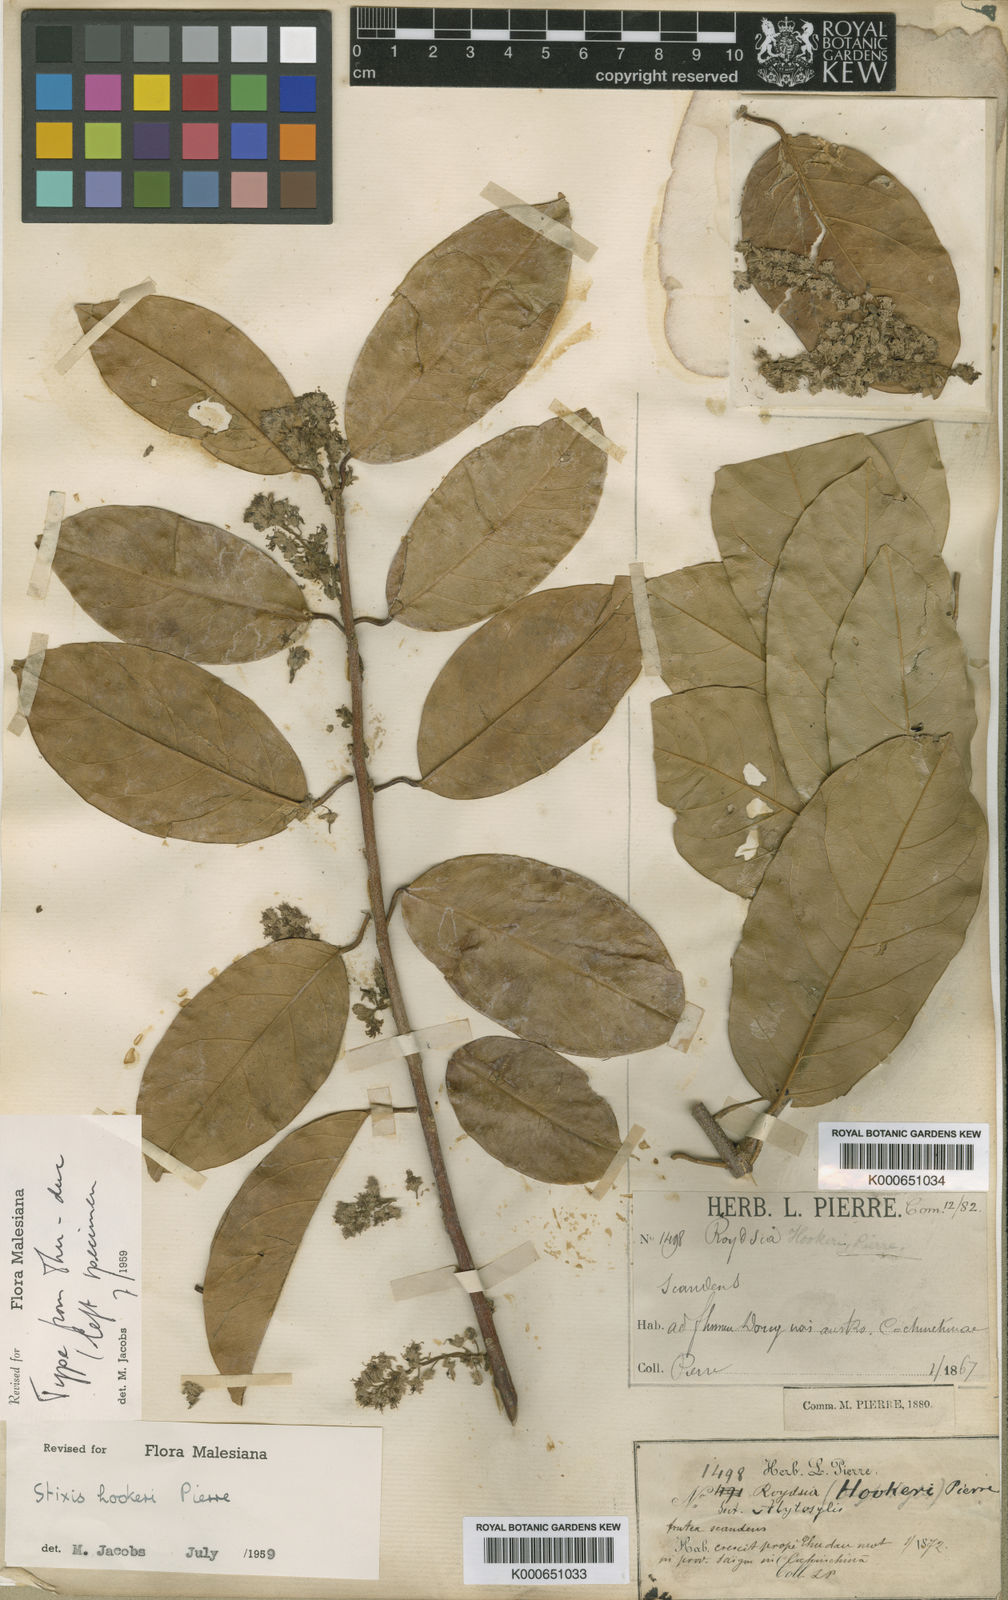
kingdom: Plantae
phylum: Tracheophyta
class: Magnoliopsida
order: Brassicales
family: Stixaceae
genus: Stixis
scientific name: Stixis
